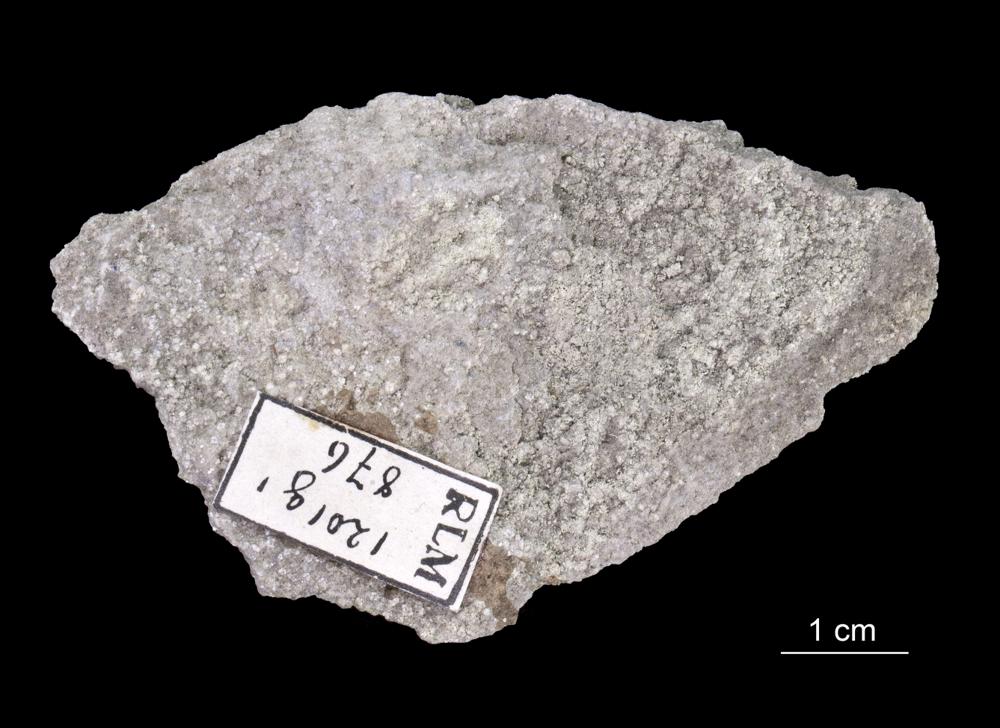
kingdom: Animalia
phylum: Annelida
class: Polychaeta
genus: Volborthella
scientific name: Volborthella tenuis
